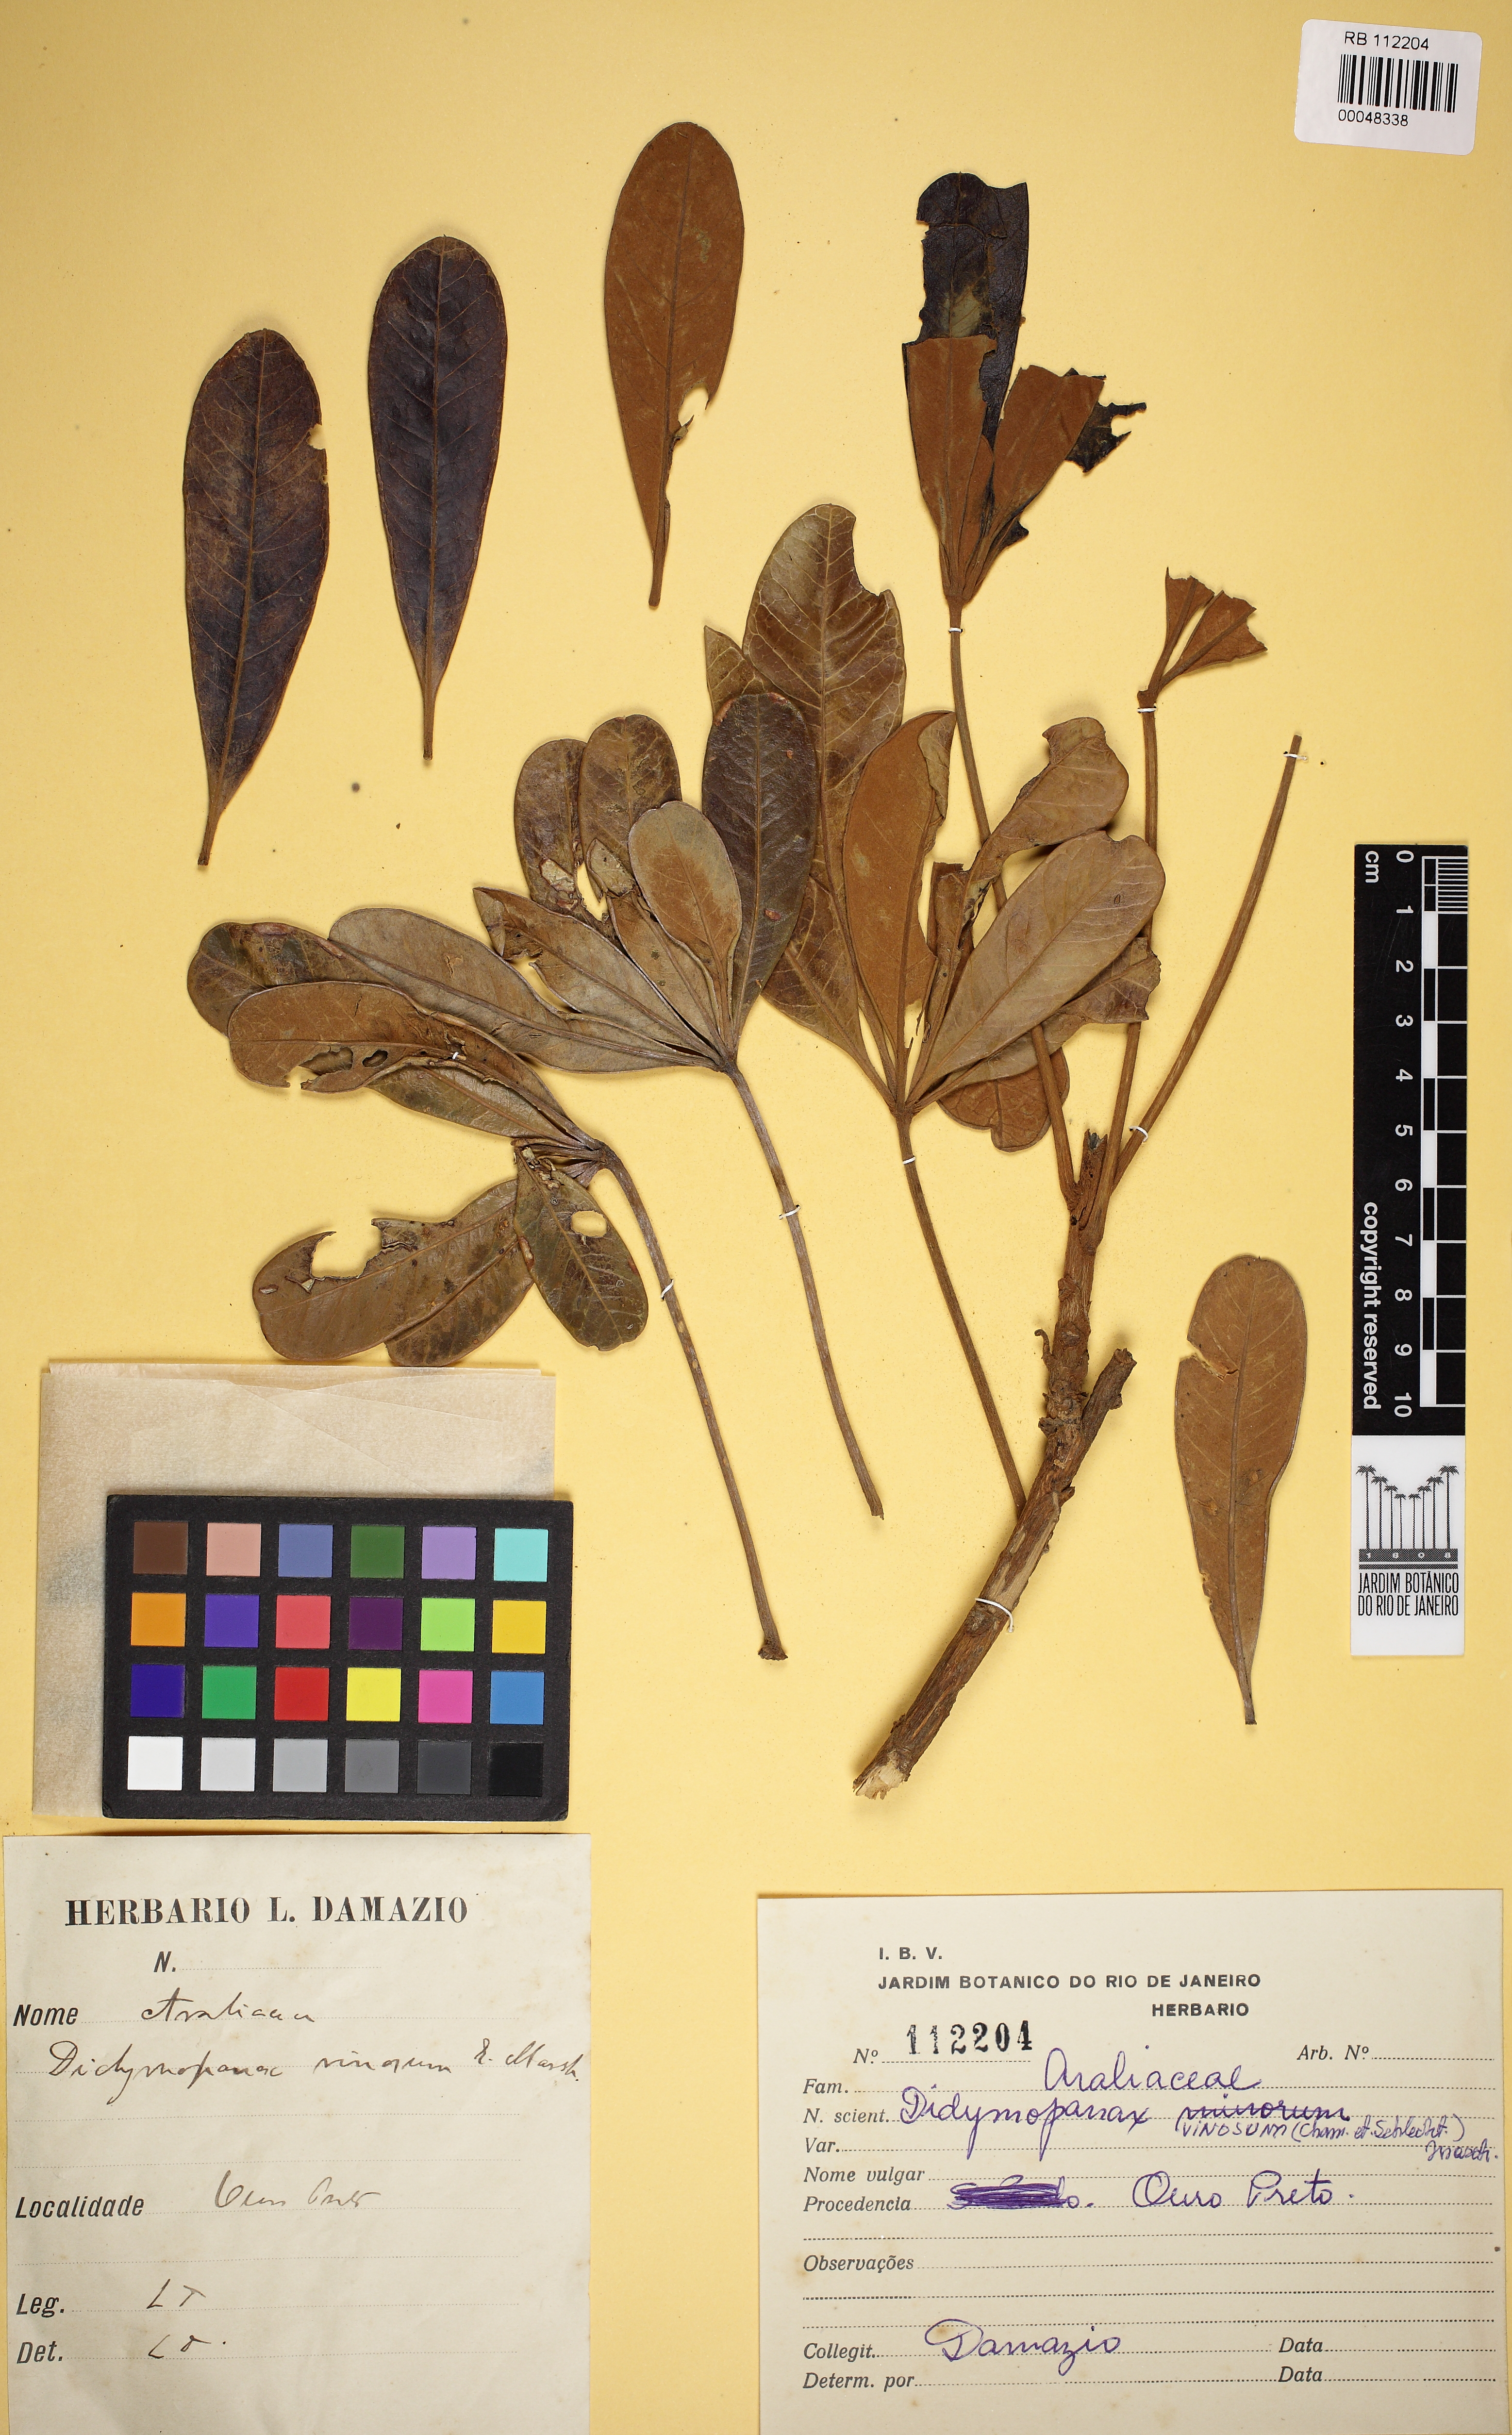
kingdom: Plantae
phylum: Tracheophyta
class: Magnoliopsida
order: Apiales
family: Araliaceae
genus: Didymopanax
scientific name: Didymopanax vinosus
